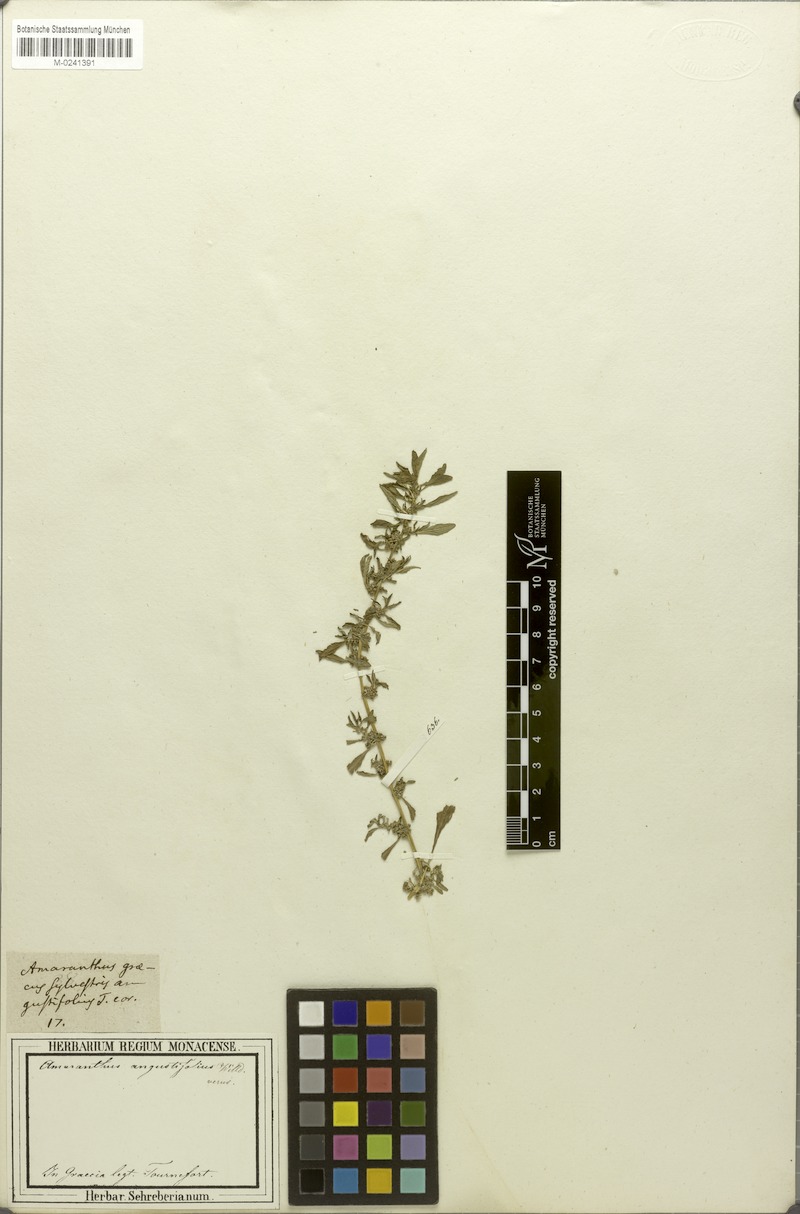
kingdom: Plantae
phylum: Tracheophyta
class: Magnoliopsida
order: Caryophyllales
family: Amaranthaceae
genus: Amaranthus
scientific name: Amaranthus graecizans
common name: Mediterranean amaranth
